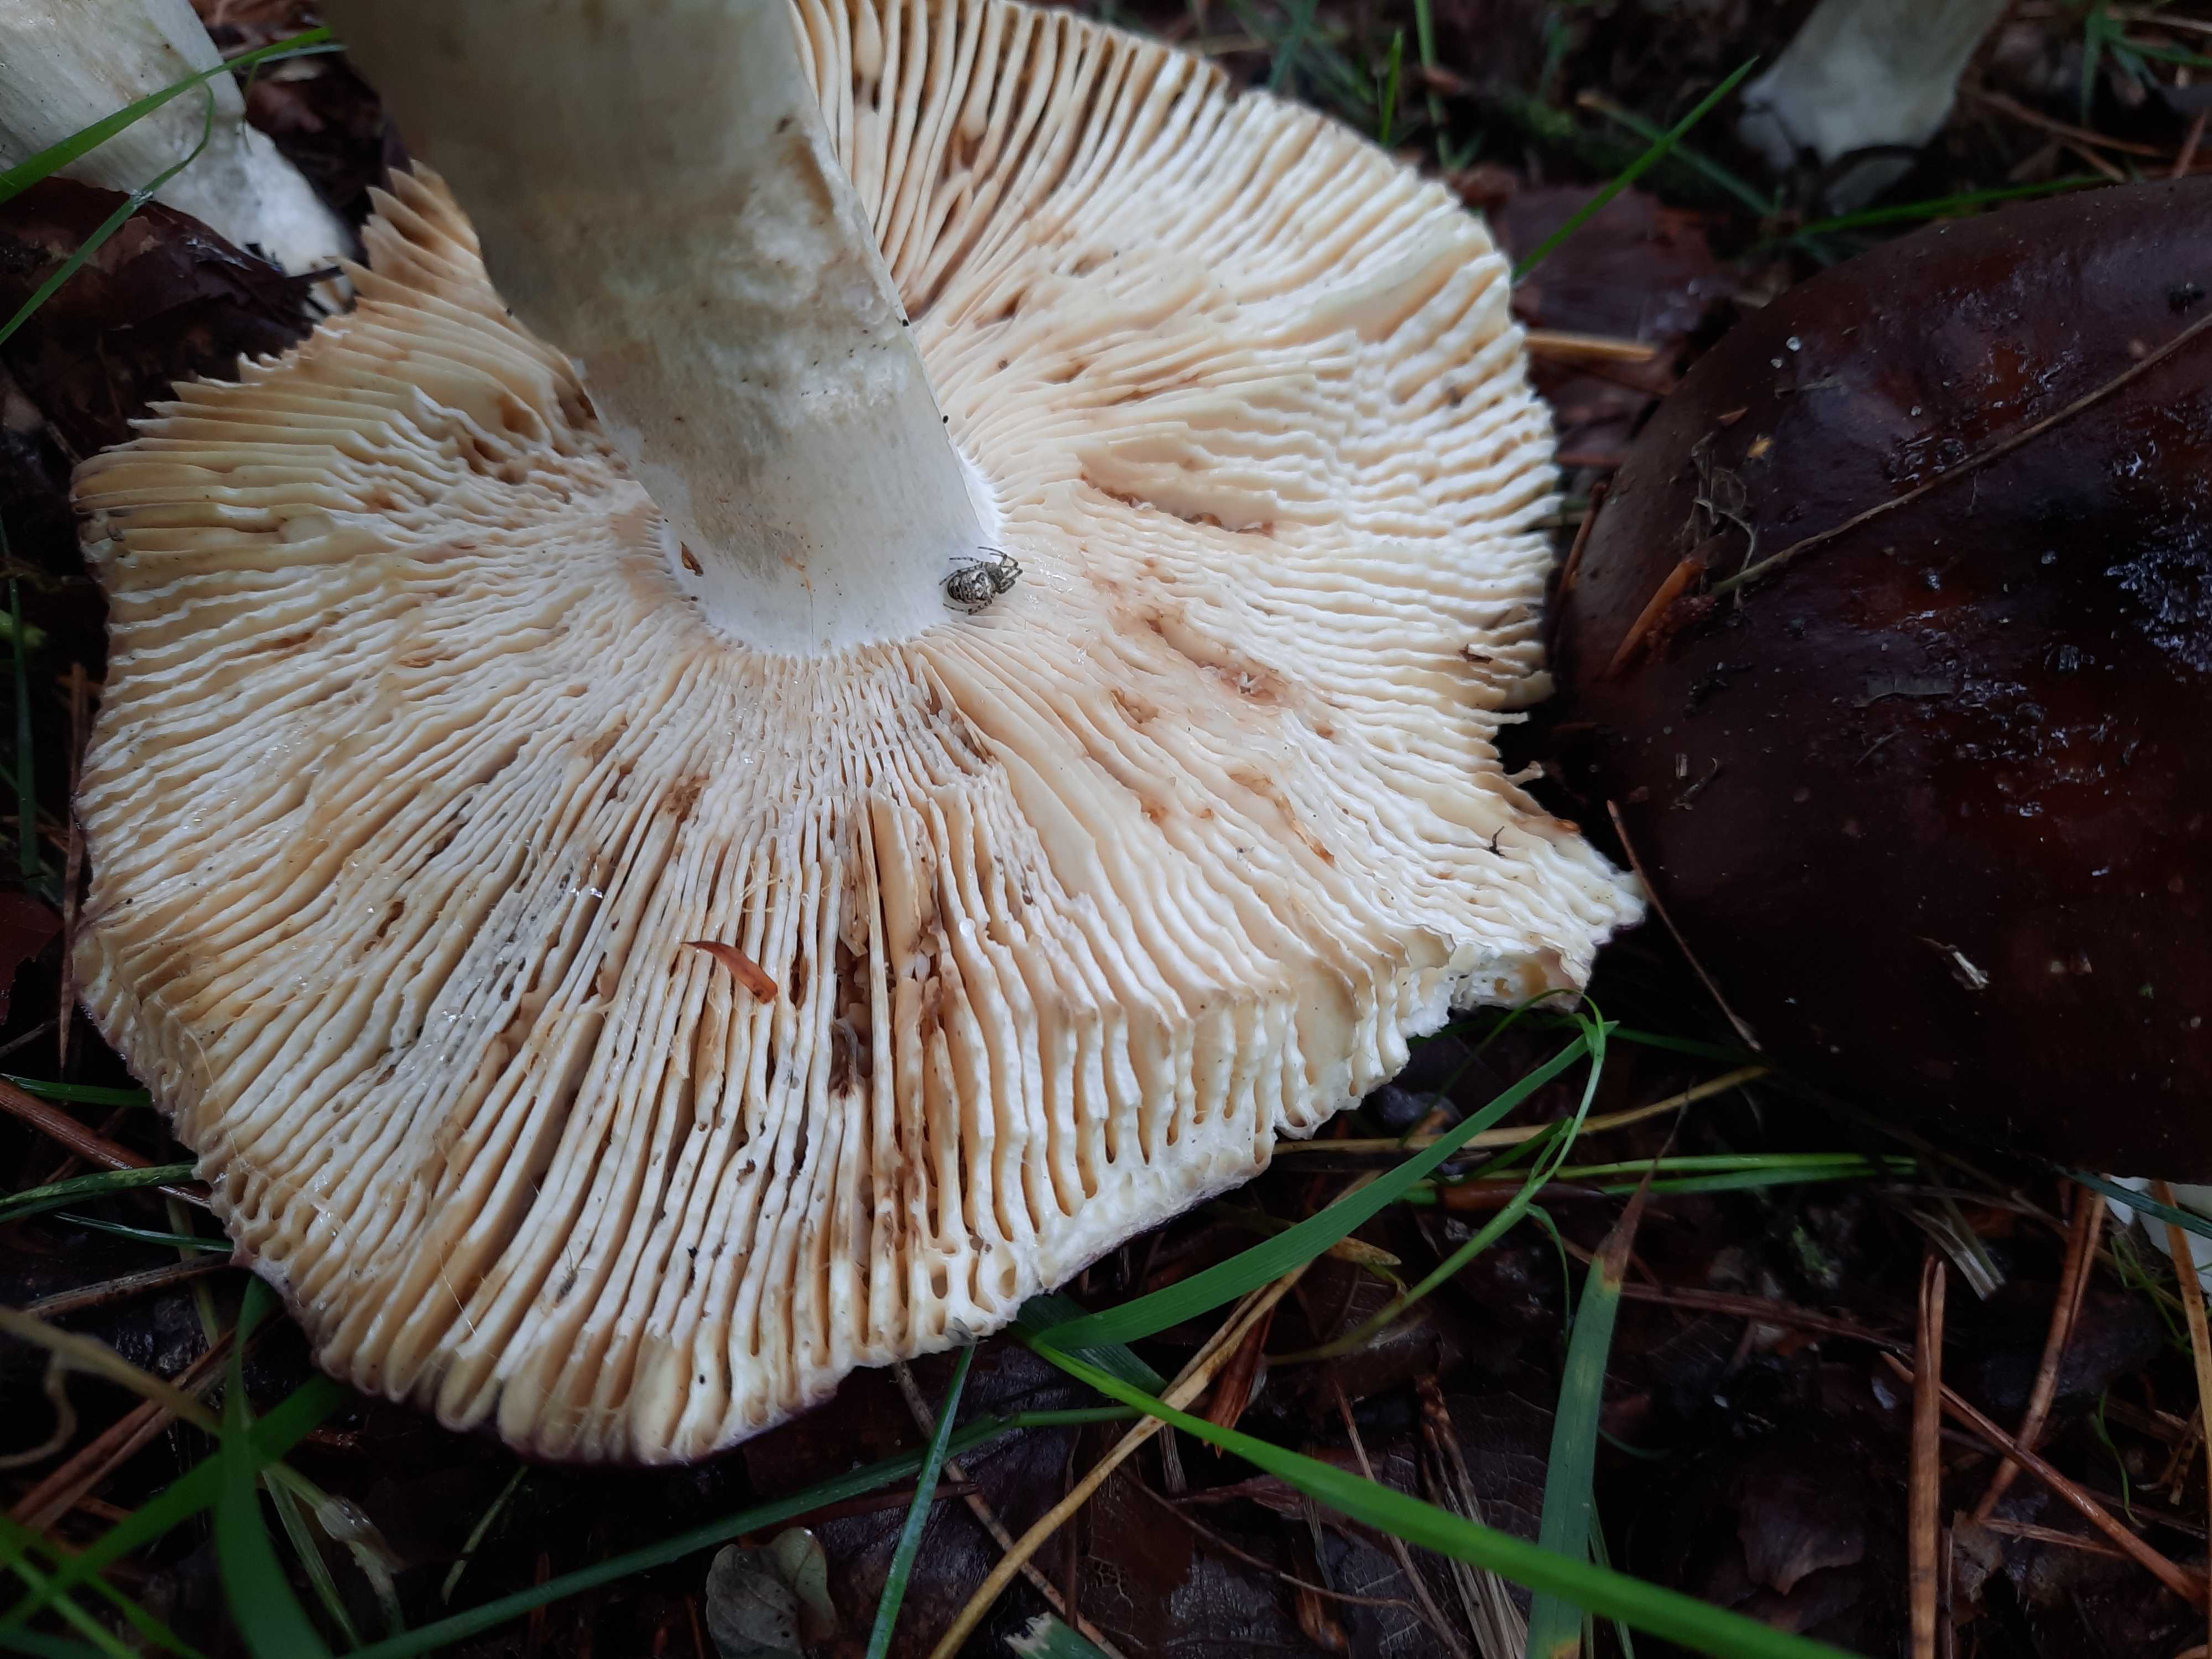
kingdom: Fungi
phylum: Basidiomycota
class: Agaricomycetes
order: Russulales
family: Russulaceae
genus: Russula
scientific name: Russula integra
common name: mandel-skørhat
